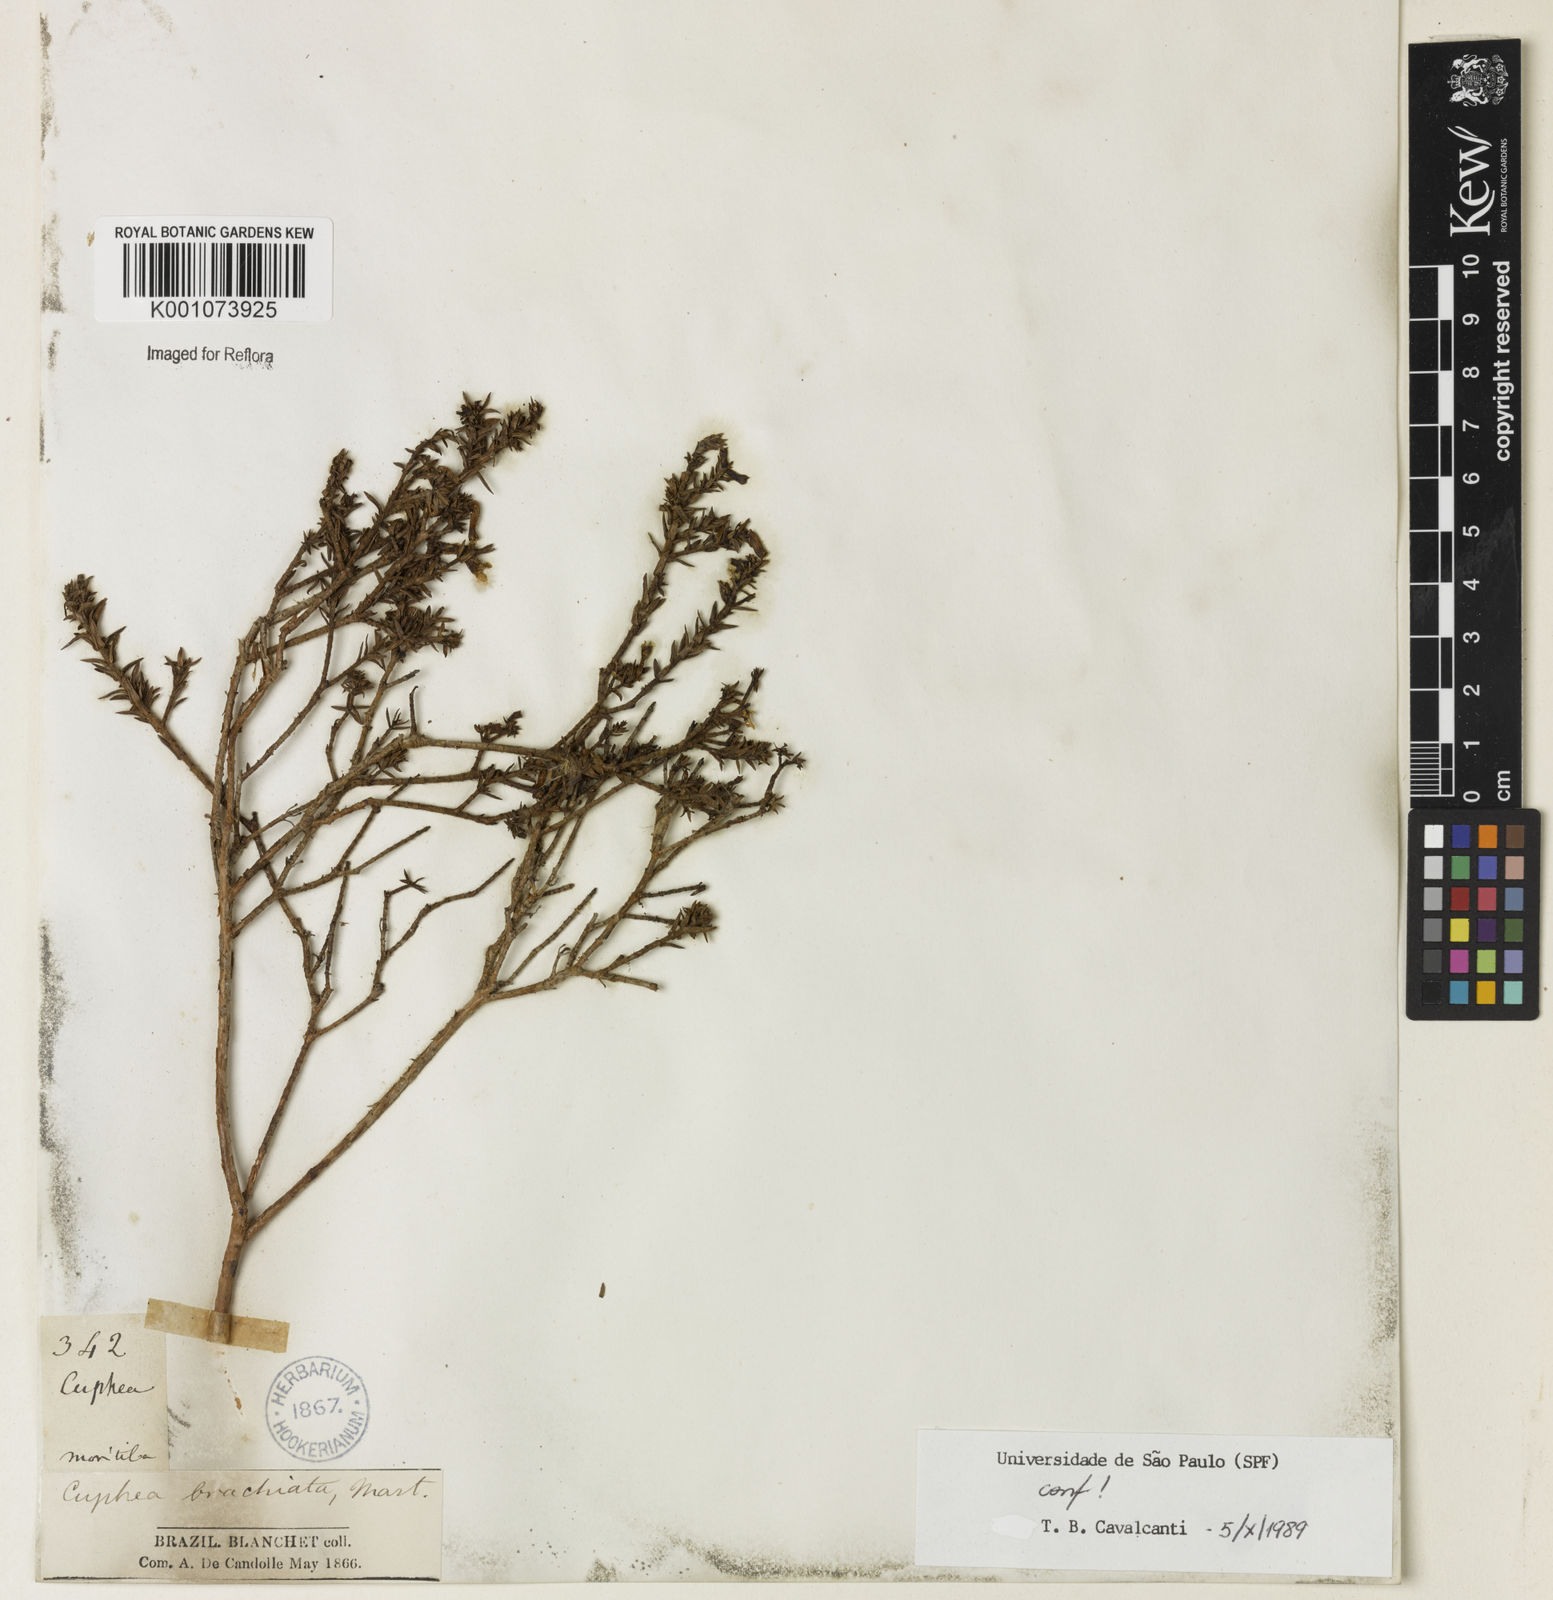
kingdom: Plantae
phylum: Tracheophyta
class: Magnoliopsida
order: Myrtales
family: Lythraceae
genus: Cuphea
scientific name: Cuphea brachiata
